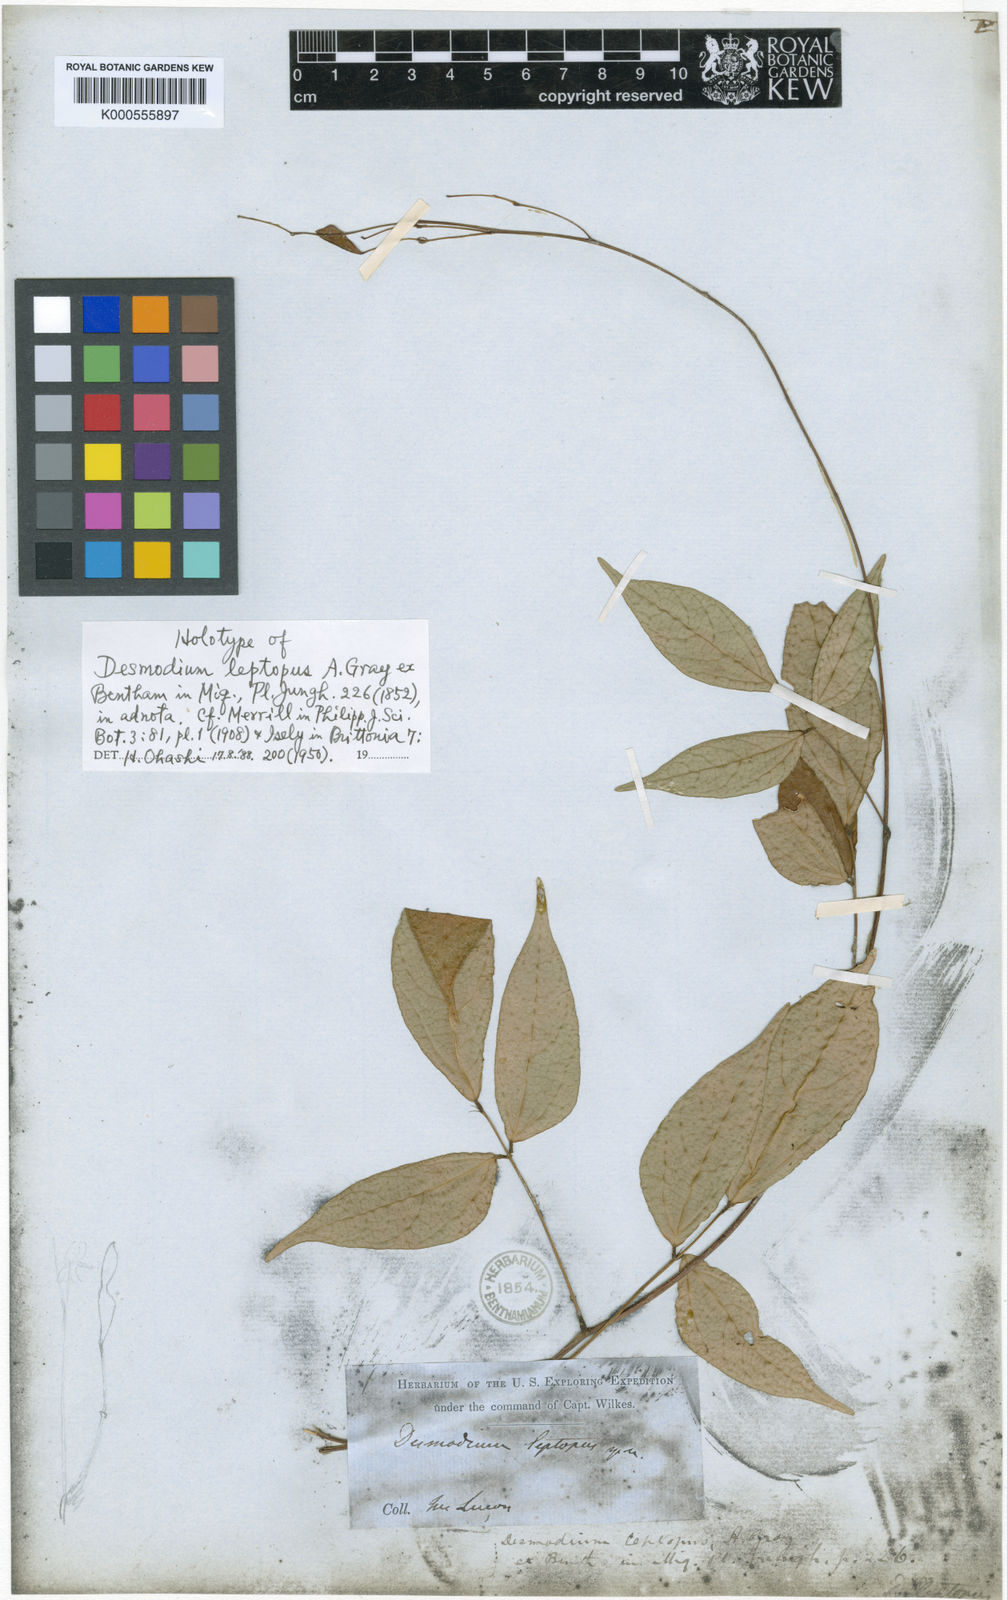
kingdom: Plantae
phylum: Tracheophyta
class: Magnoliopsida
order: Fabales
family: Fabaceae
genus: Hylodesmum
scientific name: Hylodesmum laxum
